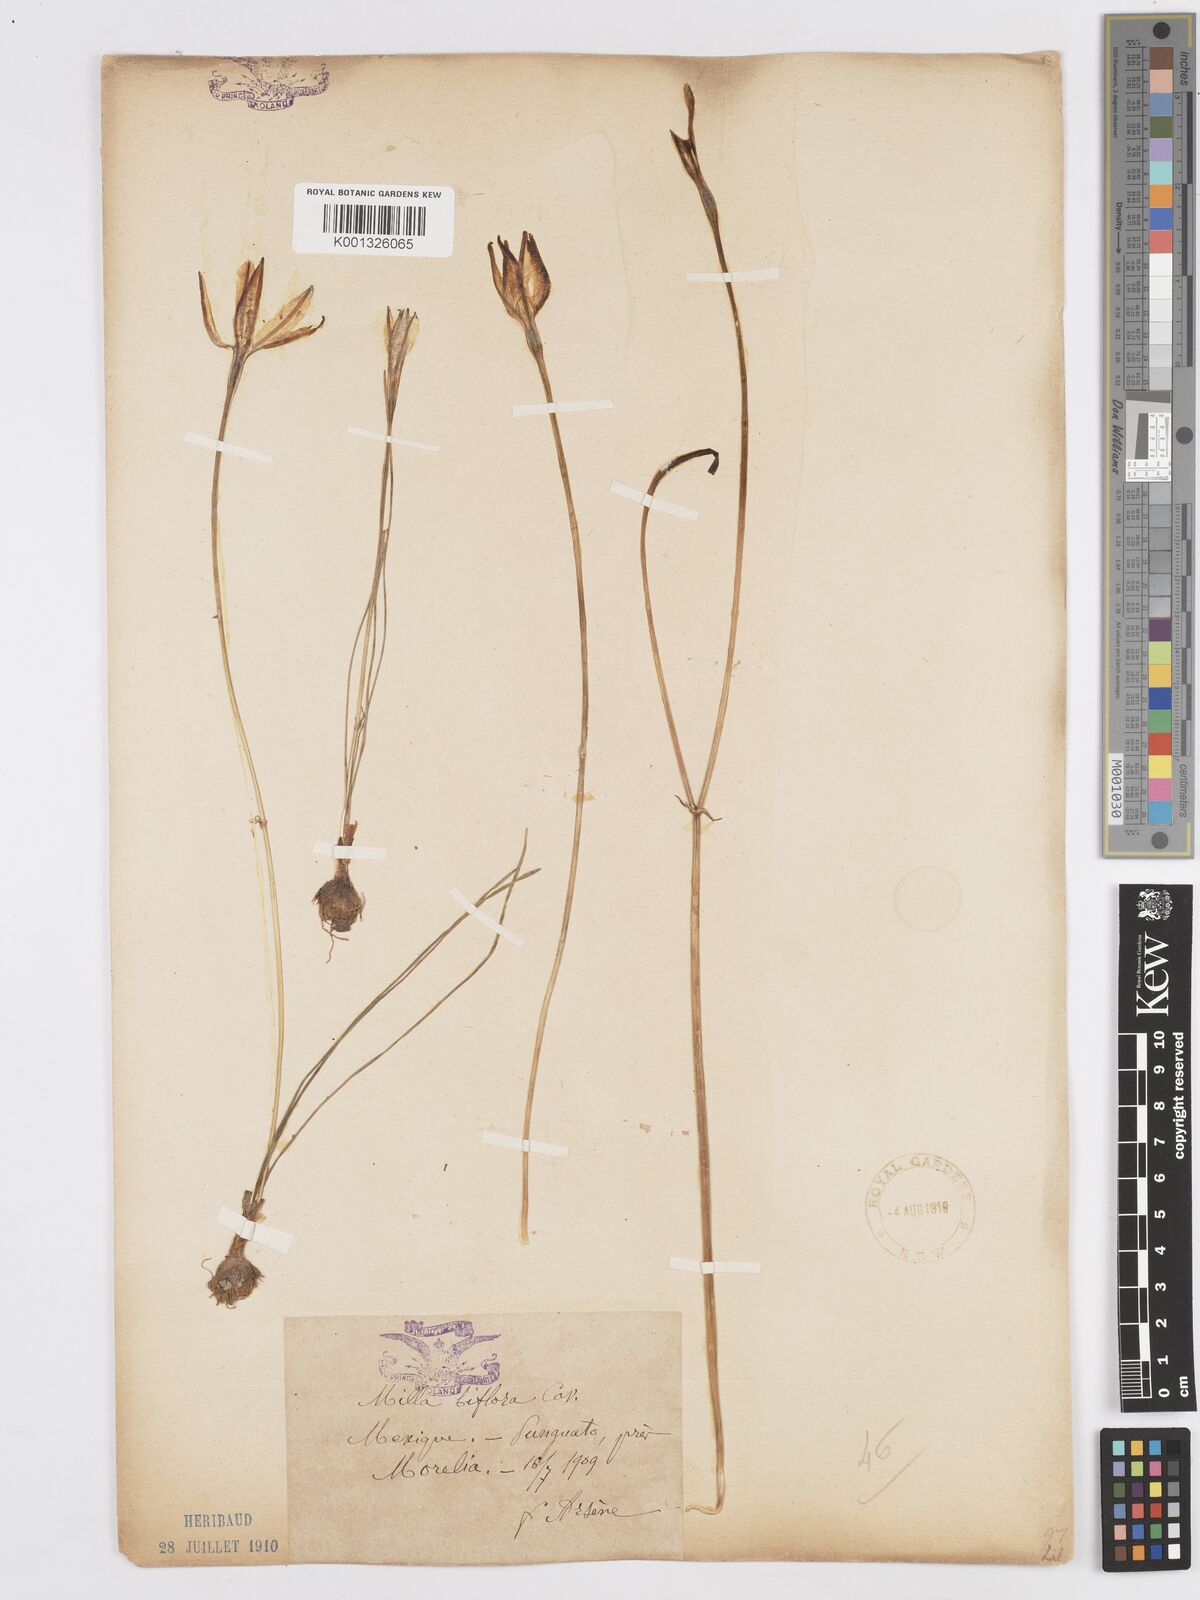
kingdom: Plantae
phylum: Tracheophyta
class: Liliopsida
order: Asparagales
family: Asparagaceae
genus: Milla
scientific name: Milla biflora
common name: Mexican-star
